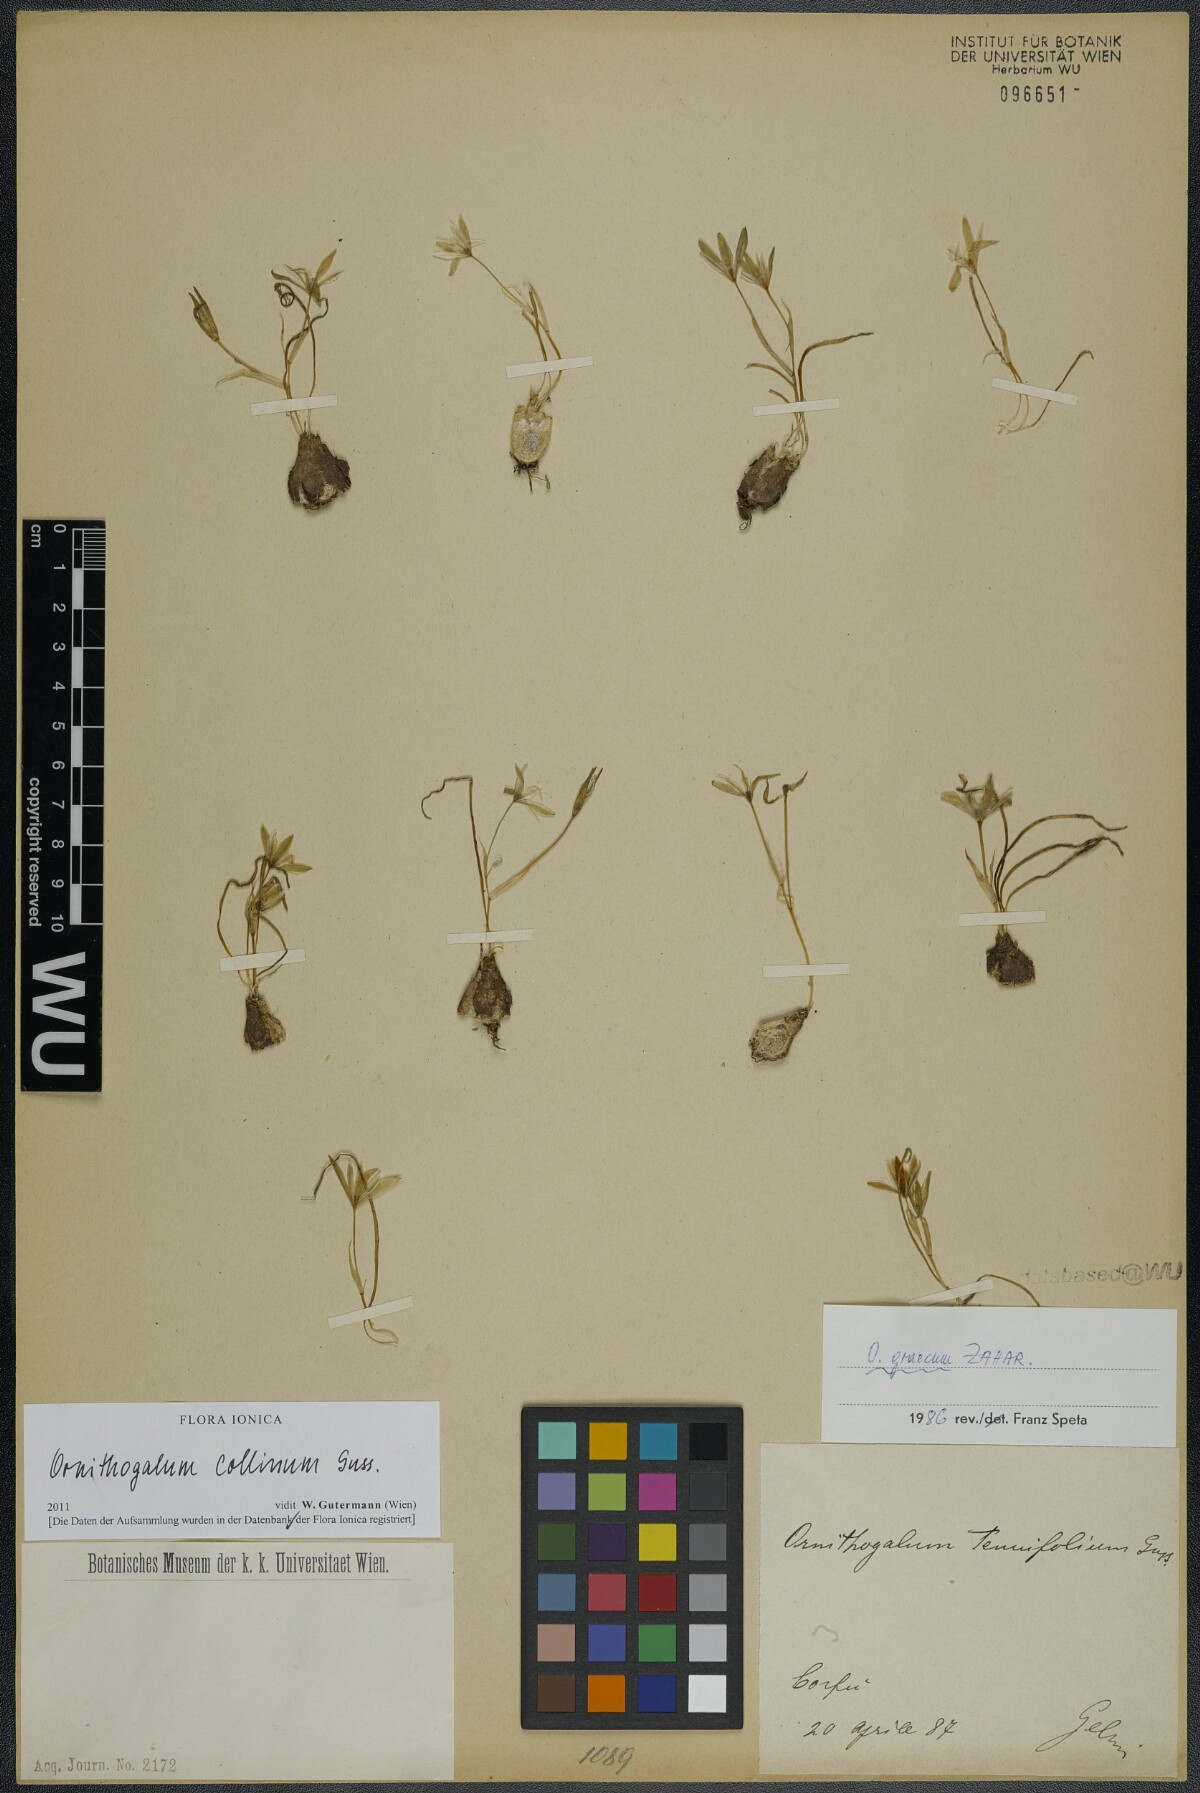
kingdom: Plantae
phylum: Tracheophyta
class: Liliopsida
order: Asparagales
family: Asparagaceae
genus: Ornithogalum
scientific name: Ornithogalum collinum
